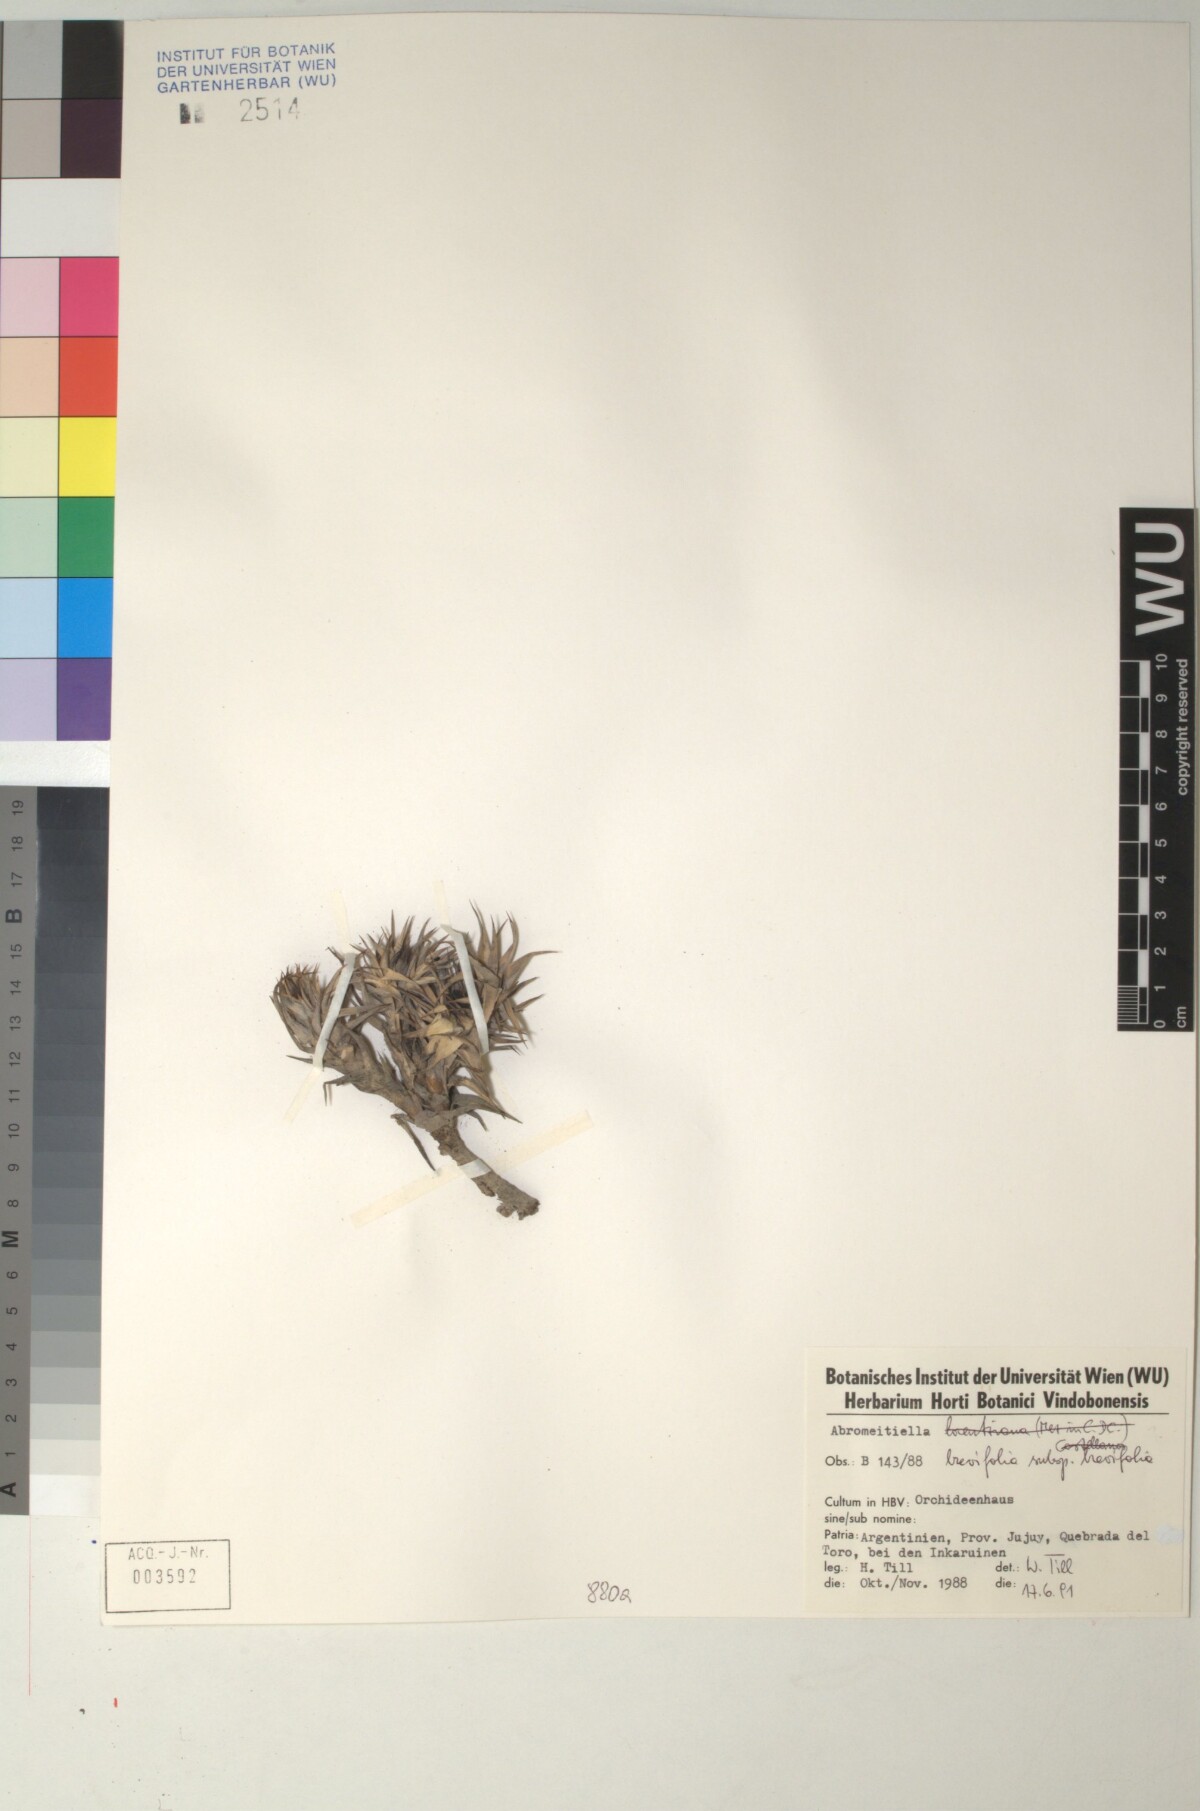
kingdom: Plantae
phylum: Tracheophyta
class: Liliopsida
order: Poales
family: Bromeliaceae
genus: Deuterocohnia
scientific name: Deuterocohnia brevifolia
